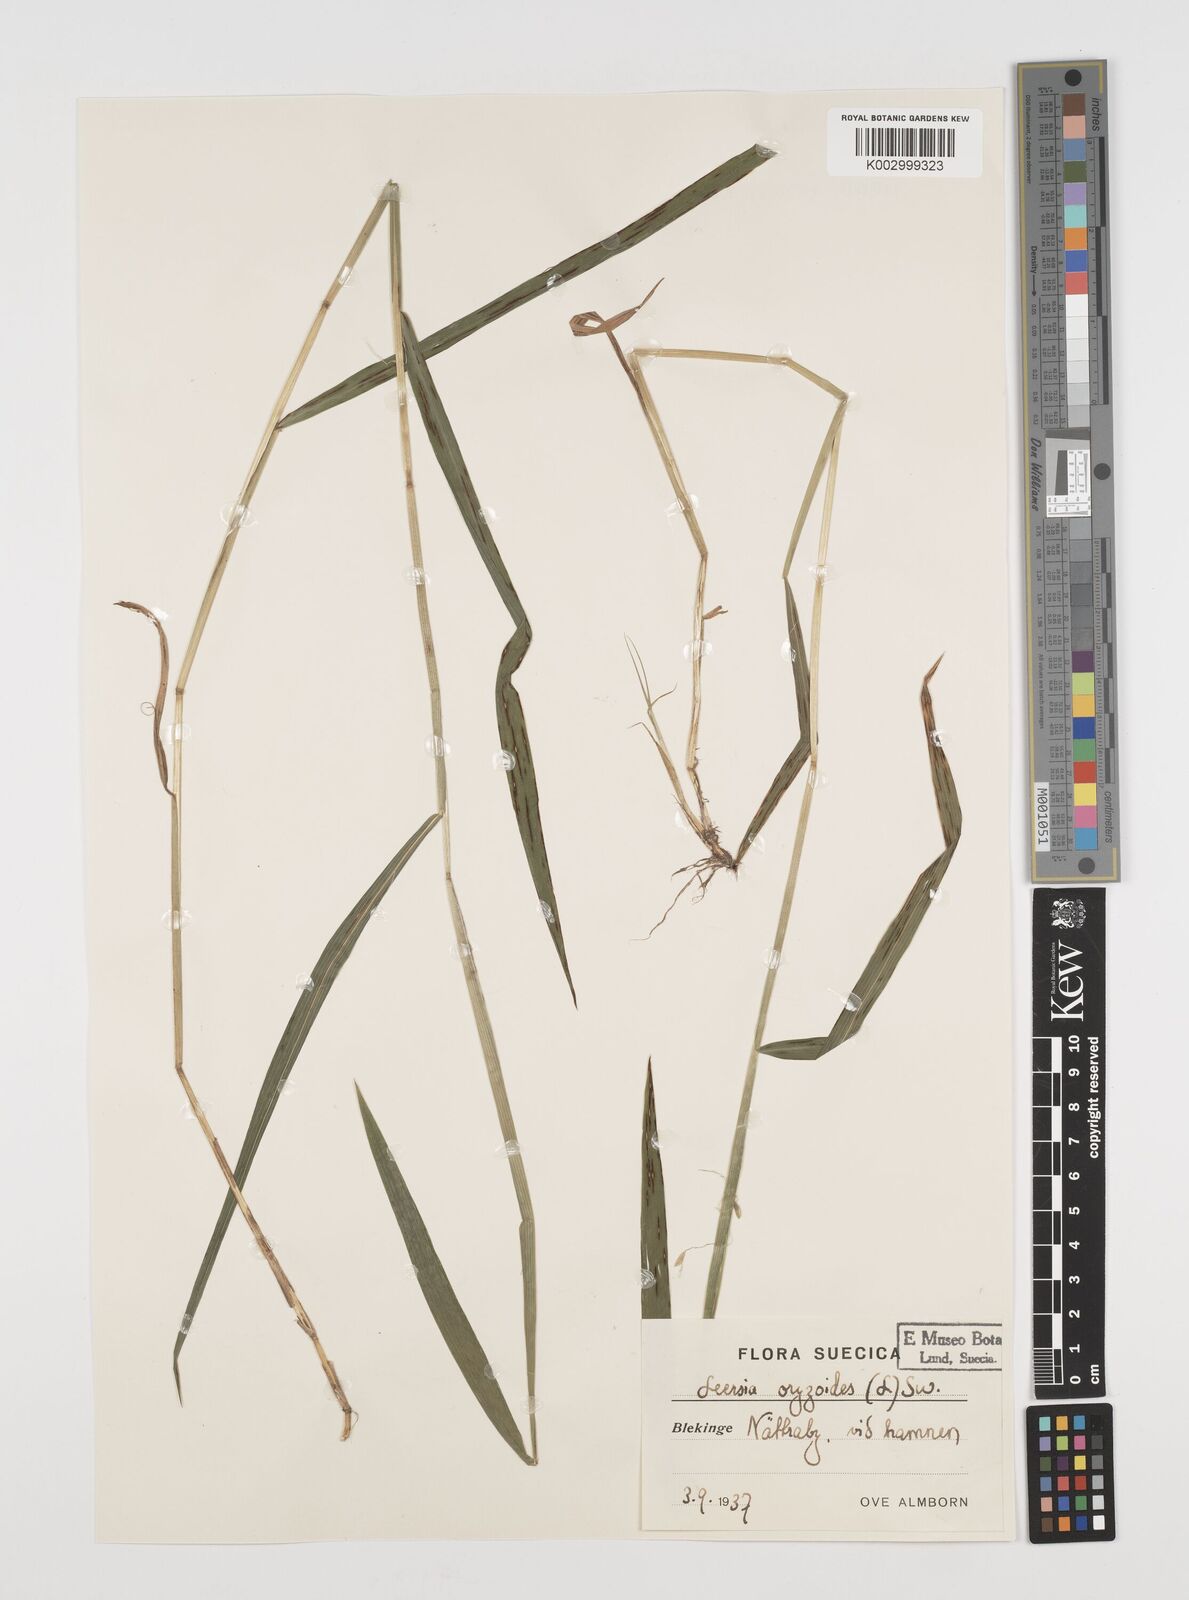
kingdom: Plantae
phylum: Tracheophyta
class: Liliopsida
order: Poales
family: Poaceae
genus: Leersia
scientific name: Leersia oryzoides
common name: Cut-grass
